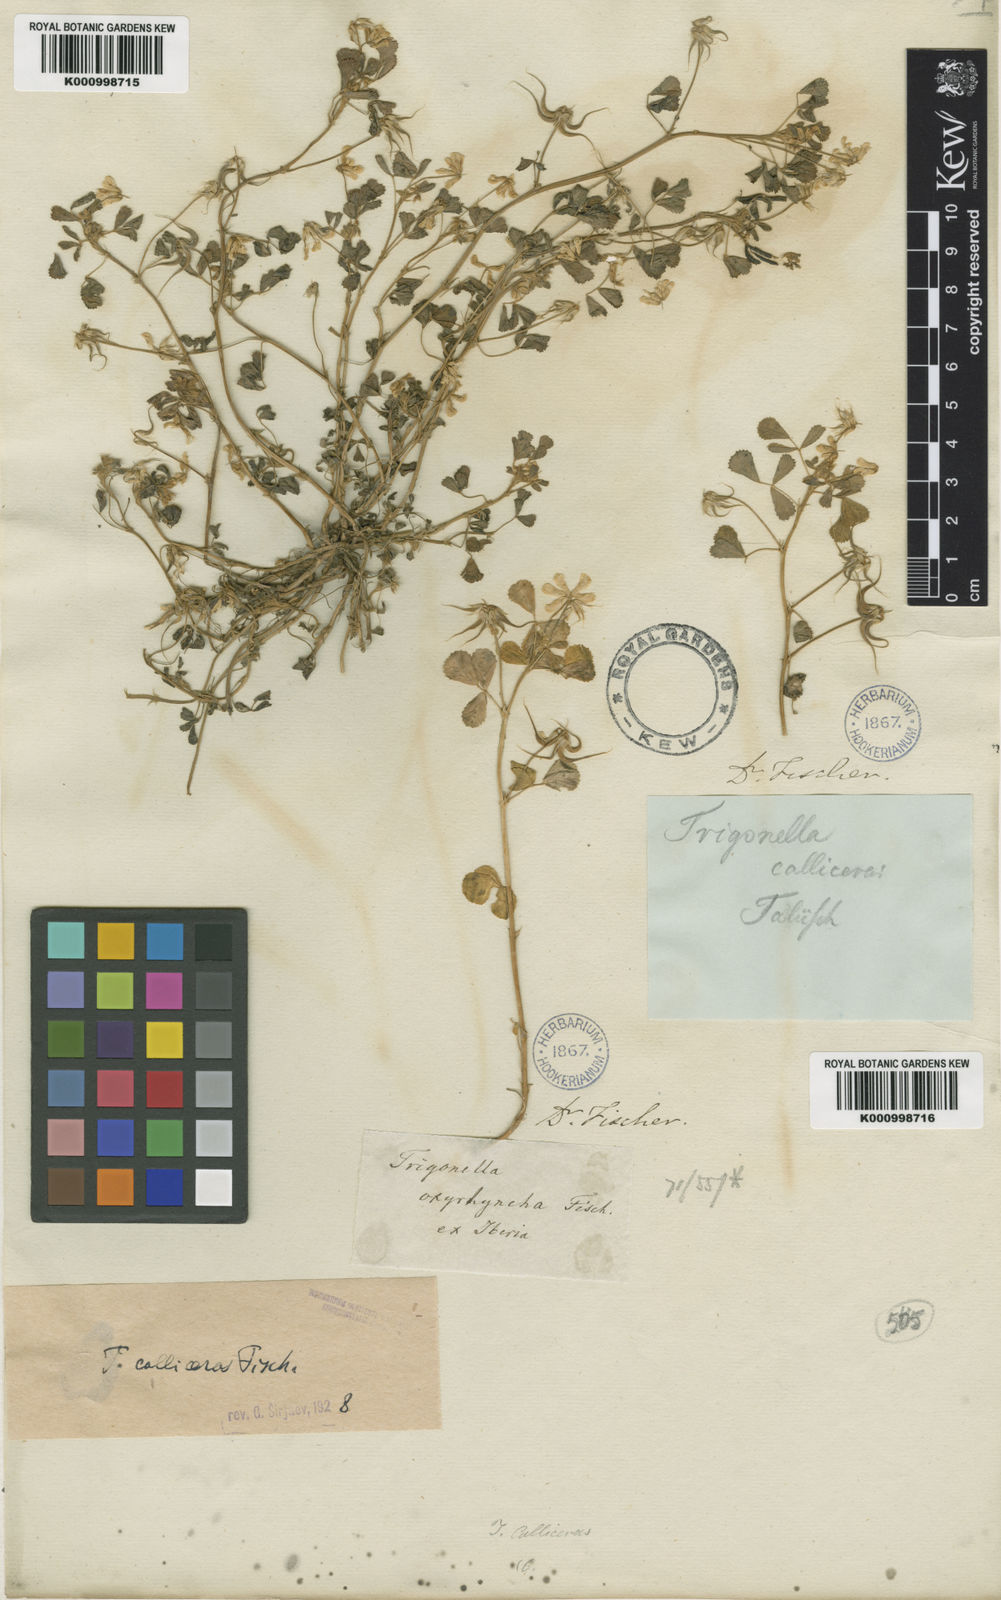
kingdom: Plantae
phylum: Tracheophyta
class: Magnoliopsida
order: Fabales
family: Fabaceae
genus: Trigonella
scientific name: Trigonella calliceras
